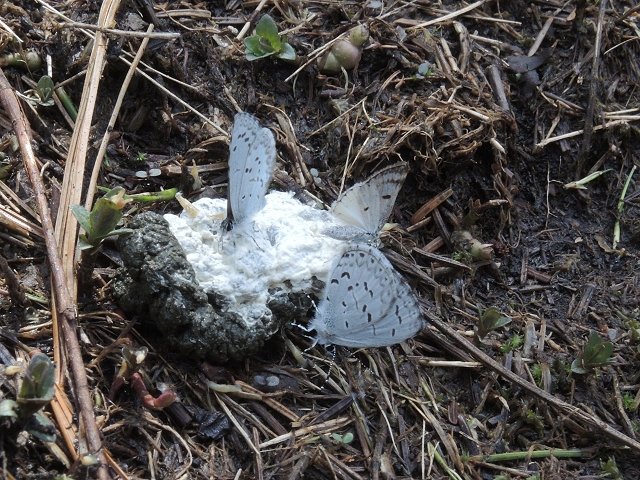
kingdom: Animalia
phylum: Arthropoda
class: Insecta
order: Lepidoptera
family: Lycaenidae
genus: Celastrina
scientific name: Celastrina lucia
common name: Northern Spring Azure
